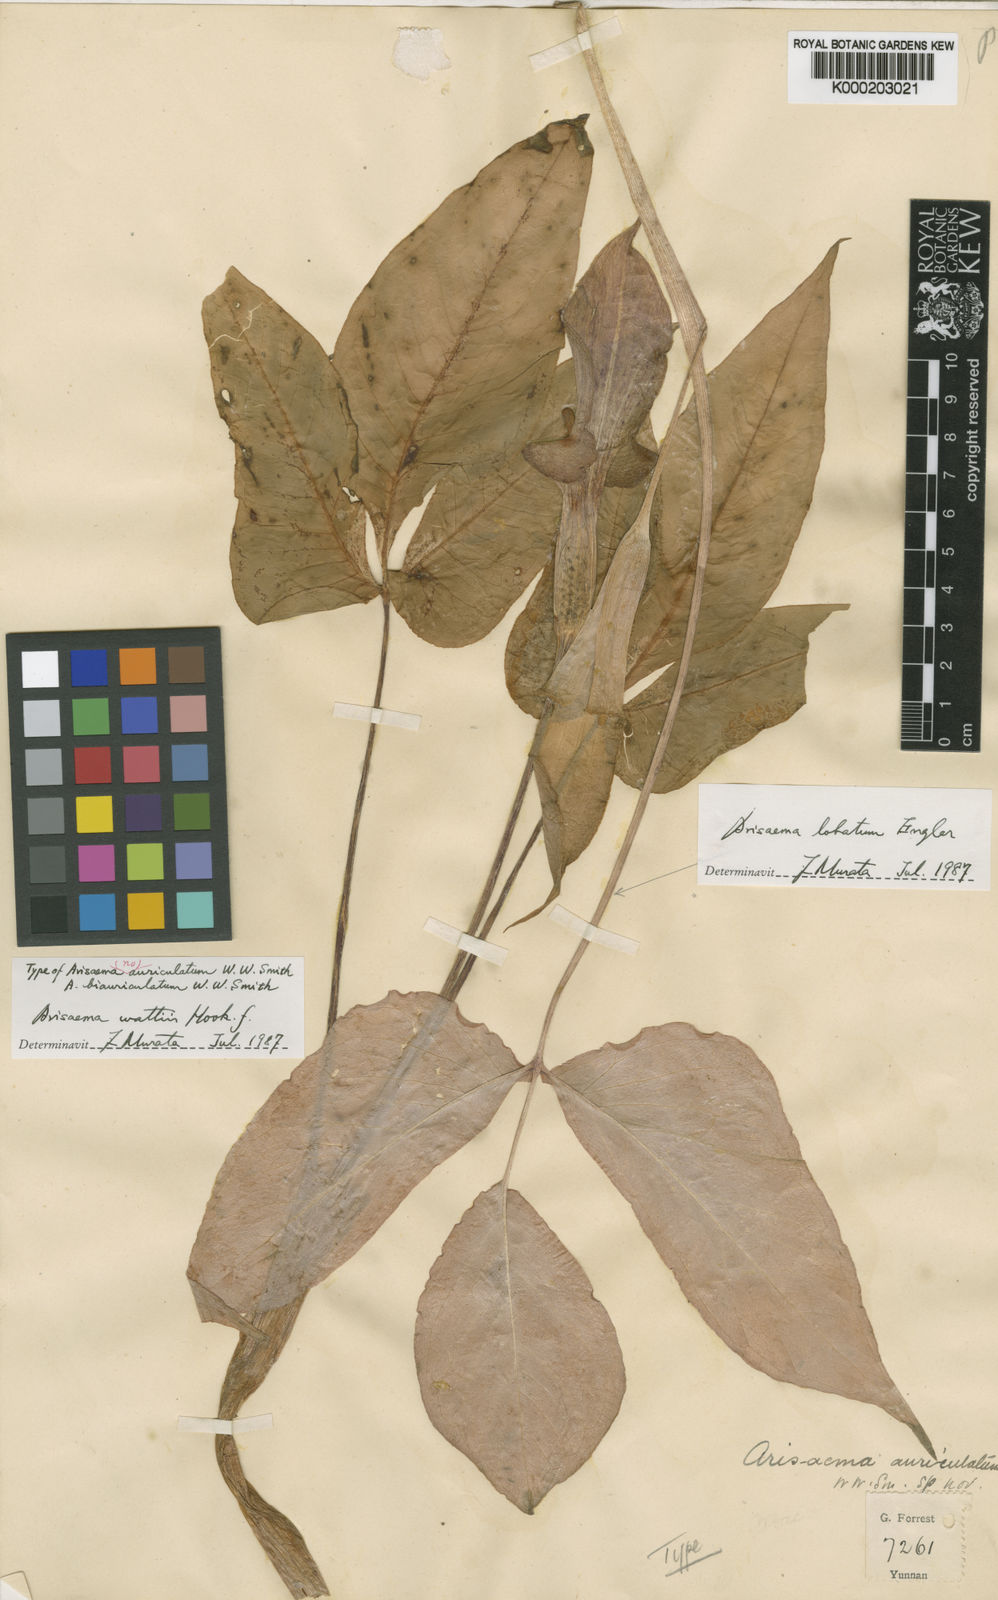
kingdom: Plantae
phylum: Tracheophyta
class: Liliopsida
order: Alismatales
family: Araceae
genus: Arisaema
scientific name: Arisaema wattii
